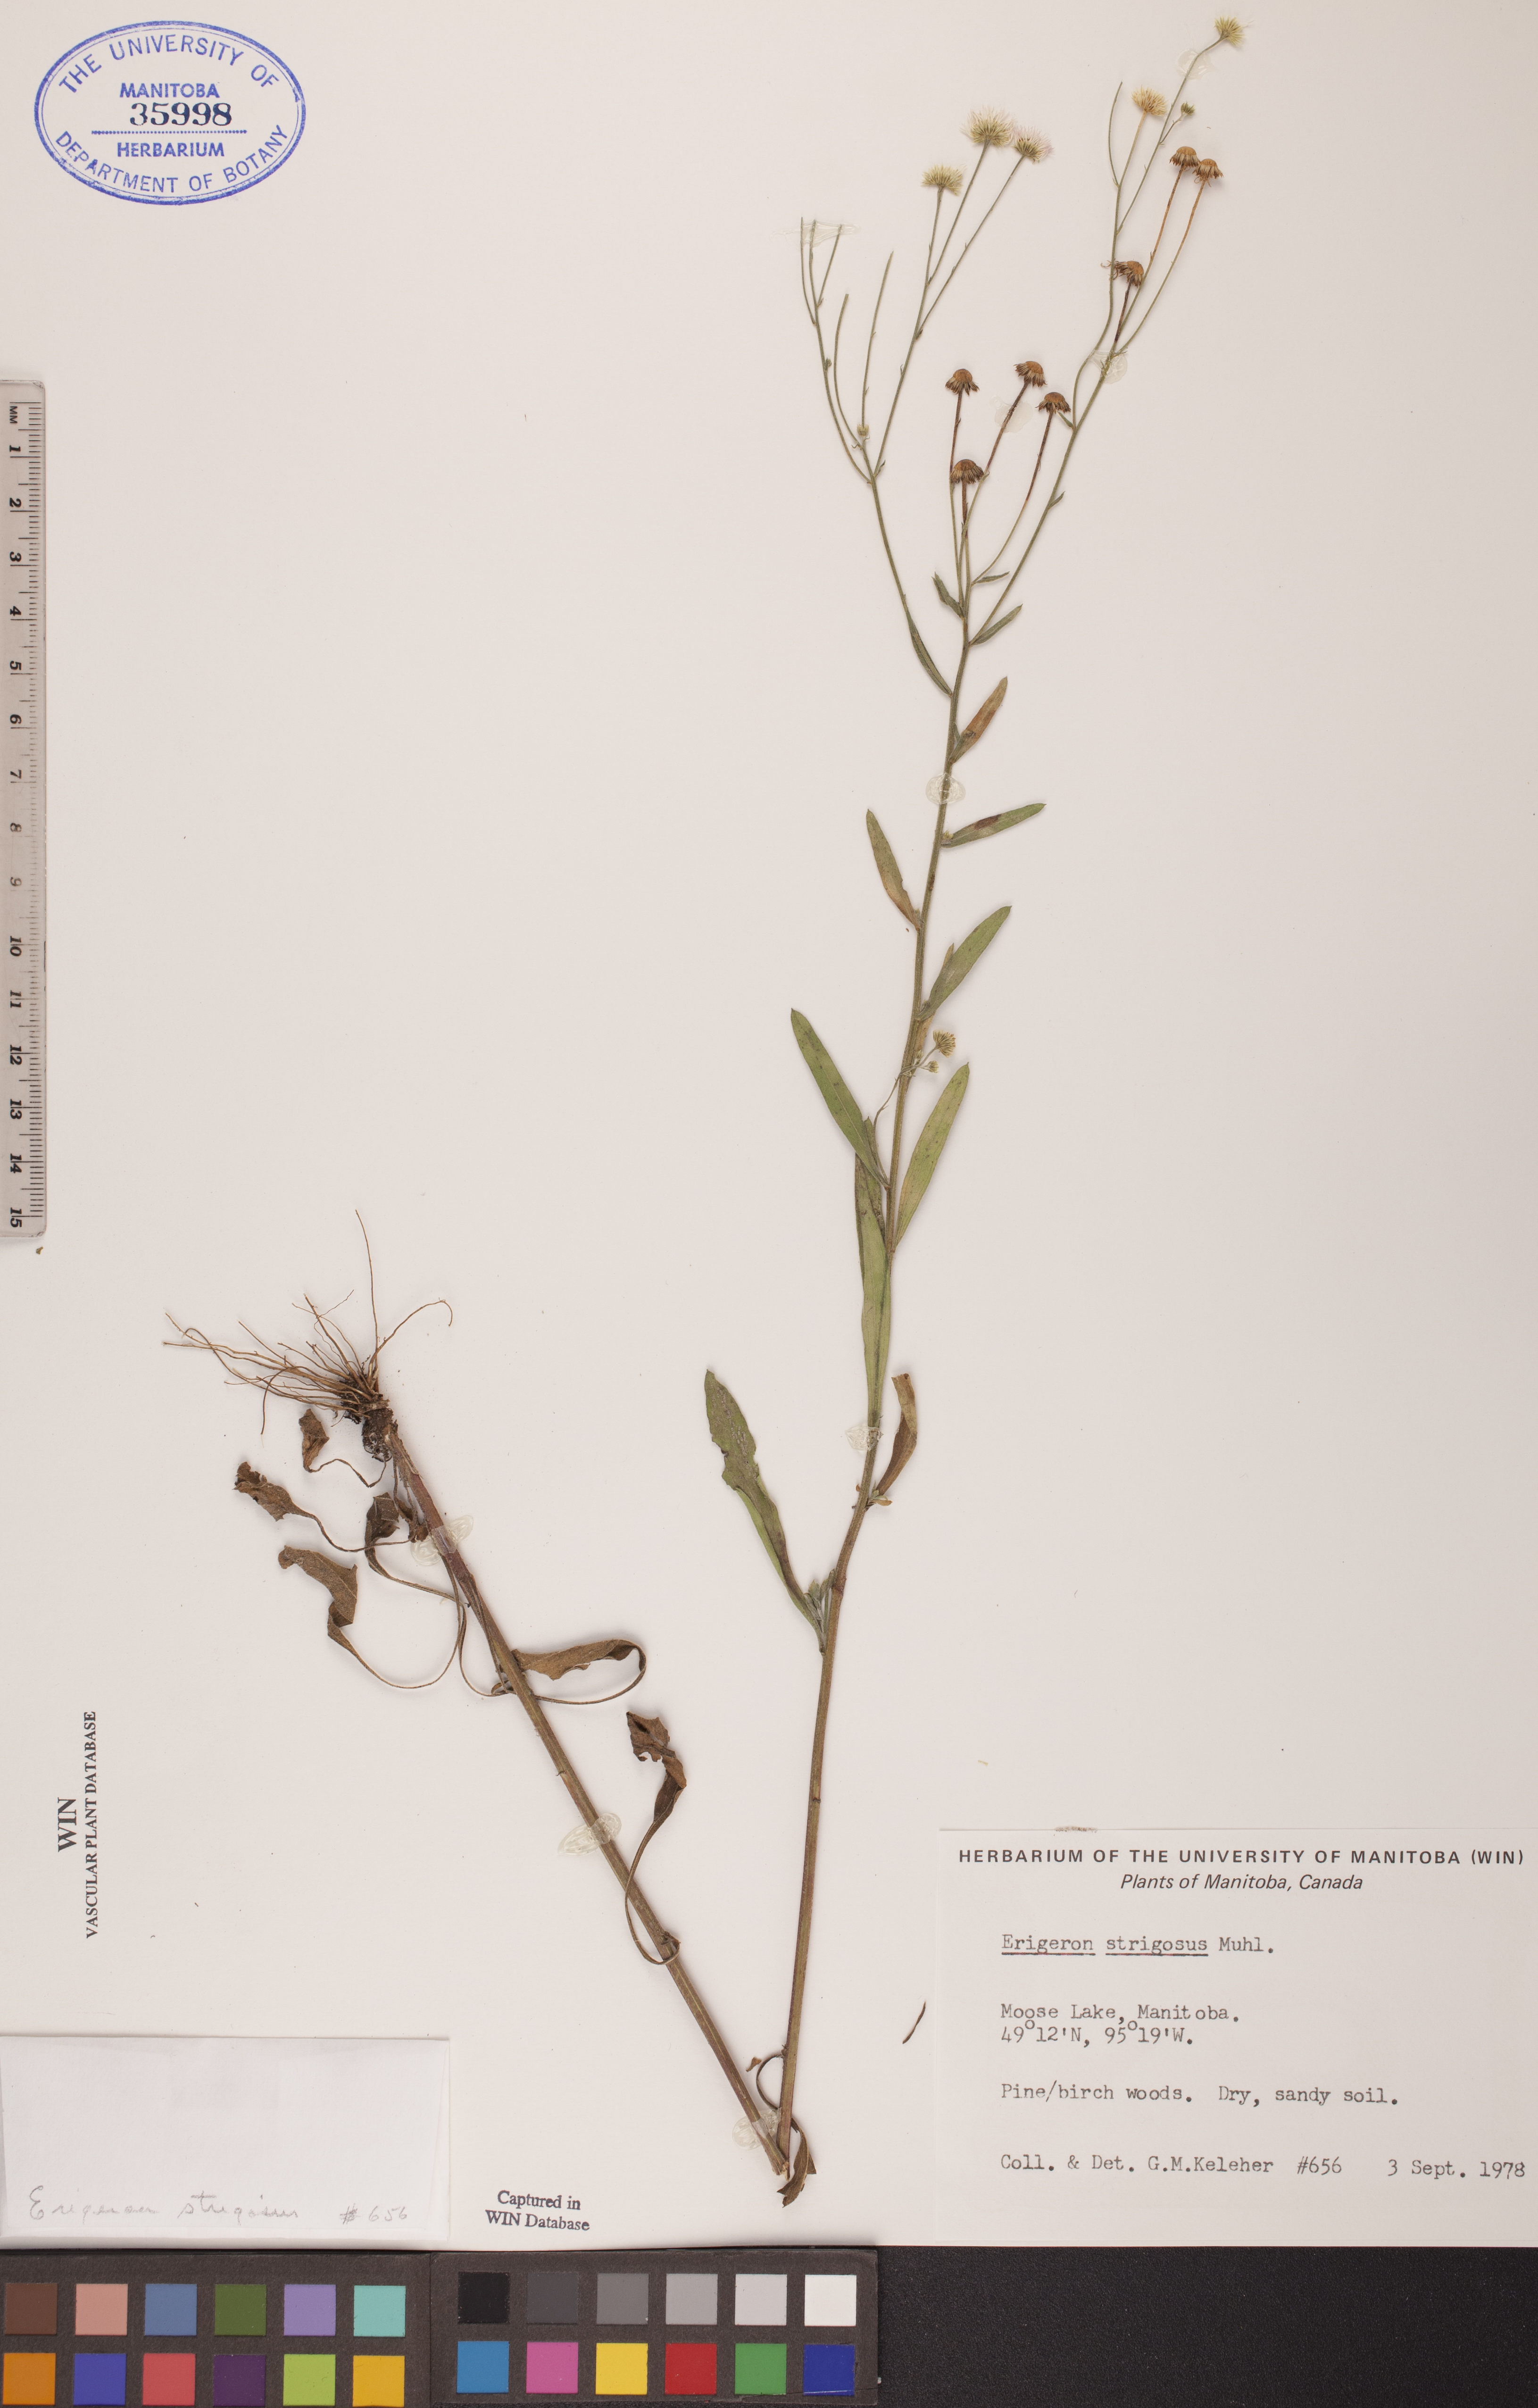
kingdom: Plantae
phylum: Tracheophyta
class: Magnoliopsida
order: Asterales
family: Asteraceae
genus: Erigeron
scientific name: Erigeron strigosus
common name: Common eastern fleabane
